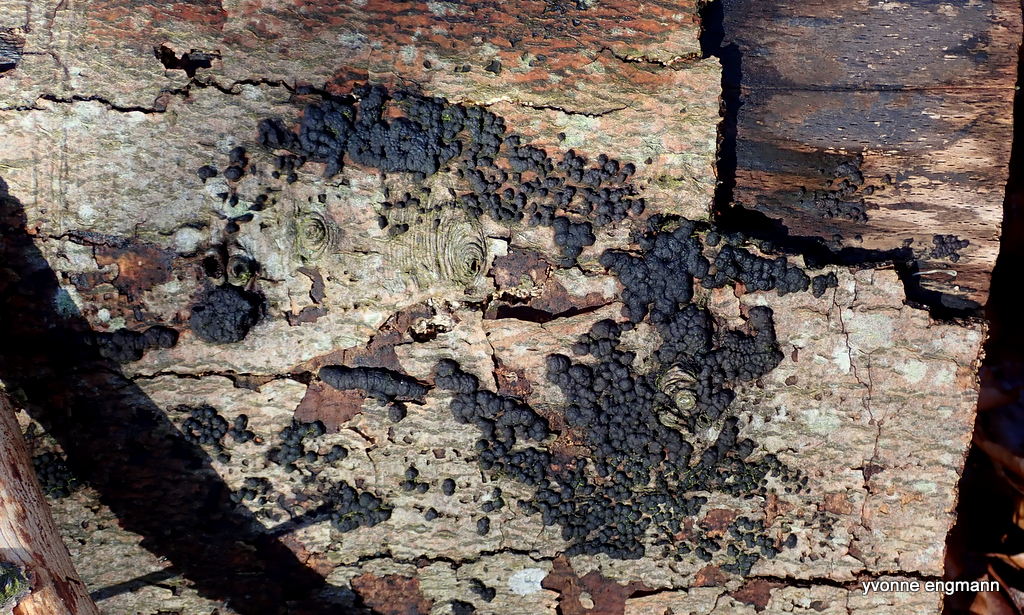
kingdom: Fungi
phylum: Ascomycota
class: Sordariomycetes
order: Xylariales
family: Hypoxylaceae
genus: Jackrogersella
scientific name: Jackrogersella cohaerens
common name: sammenflydende kulbær
